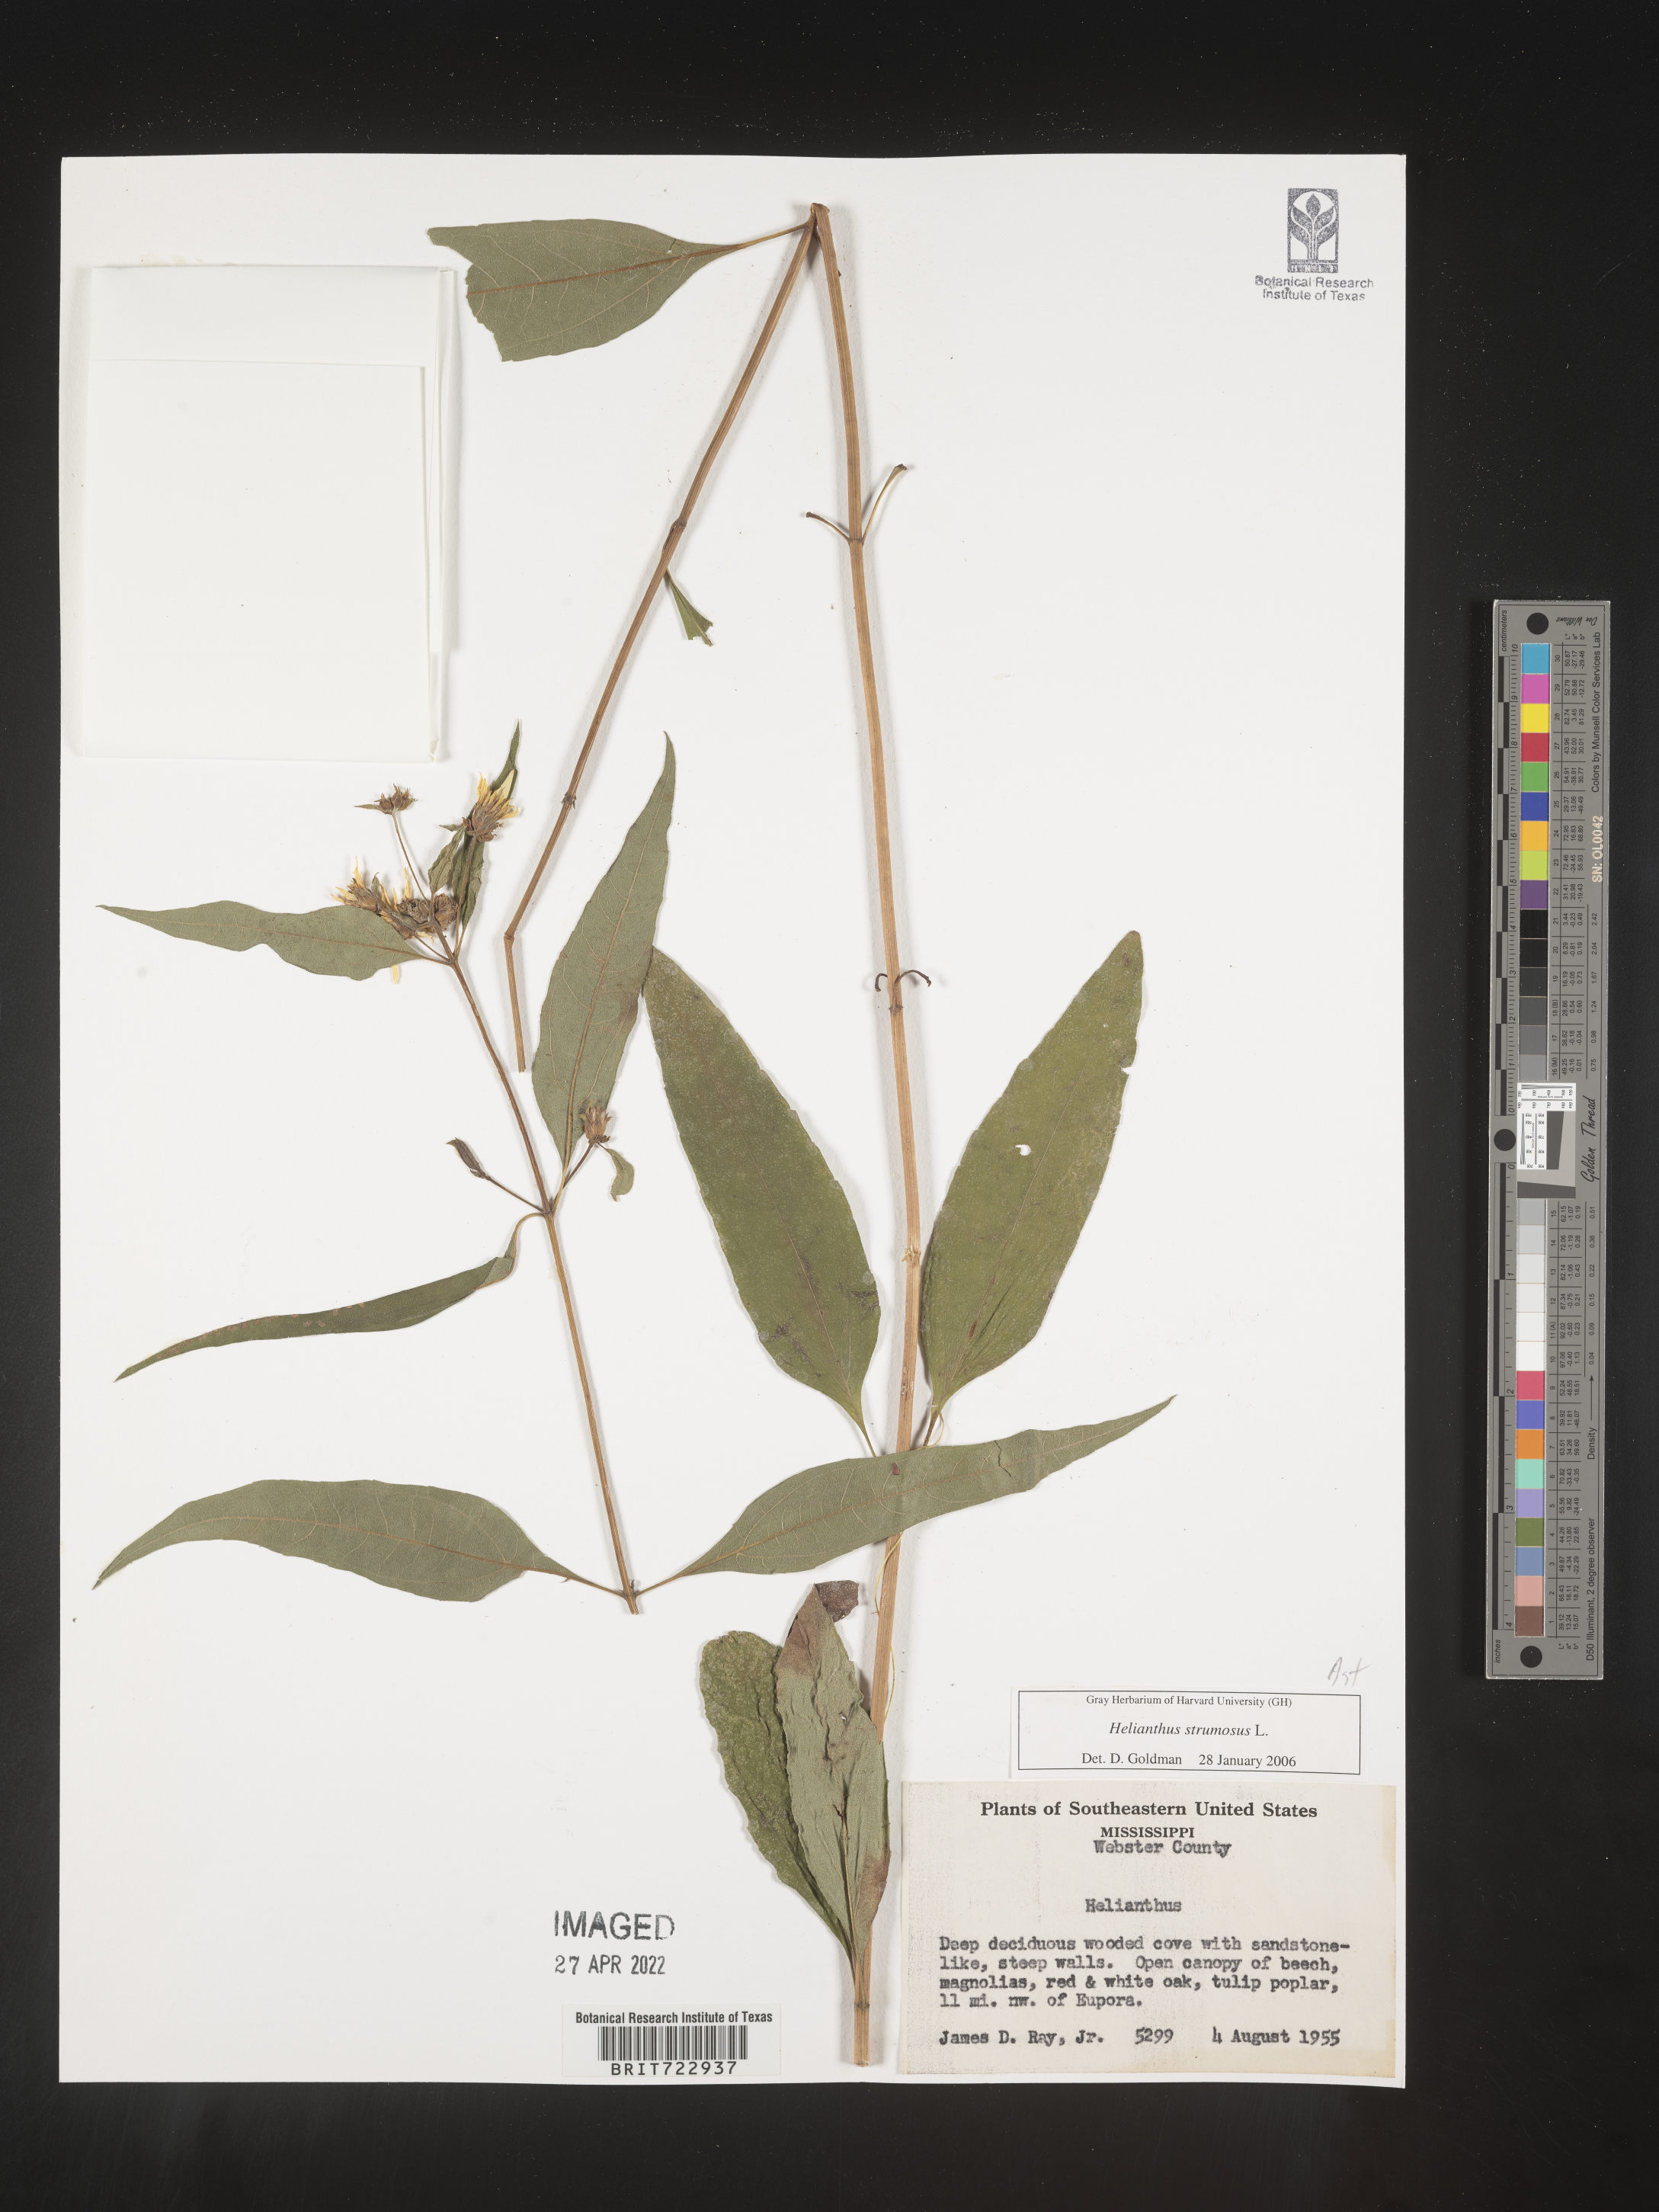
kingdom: Plantae
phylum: Tracheophyta
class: Magnoliopsida
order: Asterales
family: Asteraceae
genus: Helianthus
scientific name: Helianthus strumosus
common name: Pale-leaved sunflower
